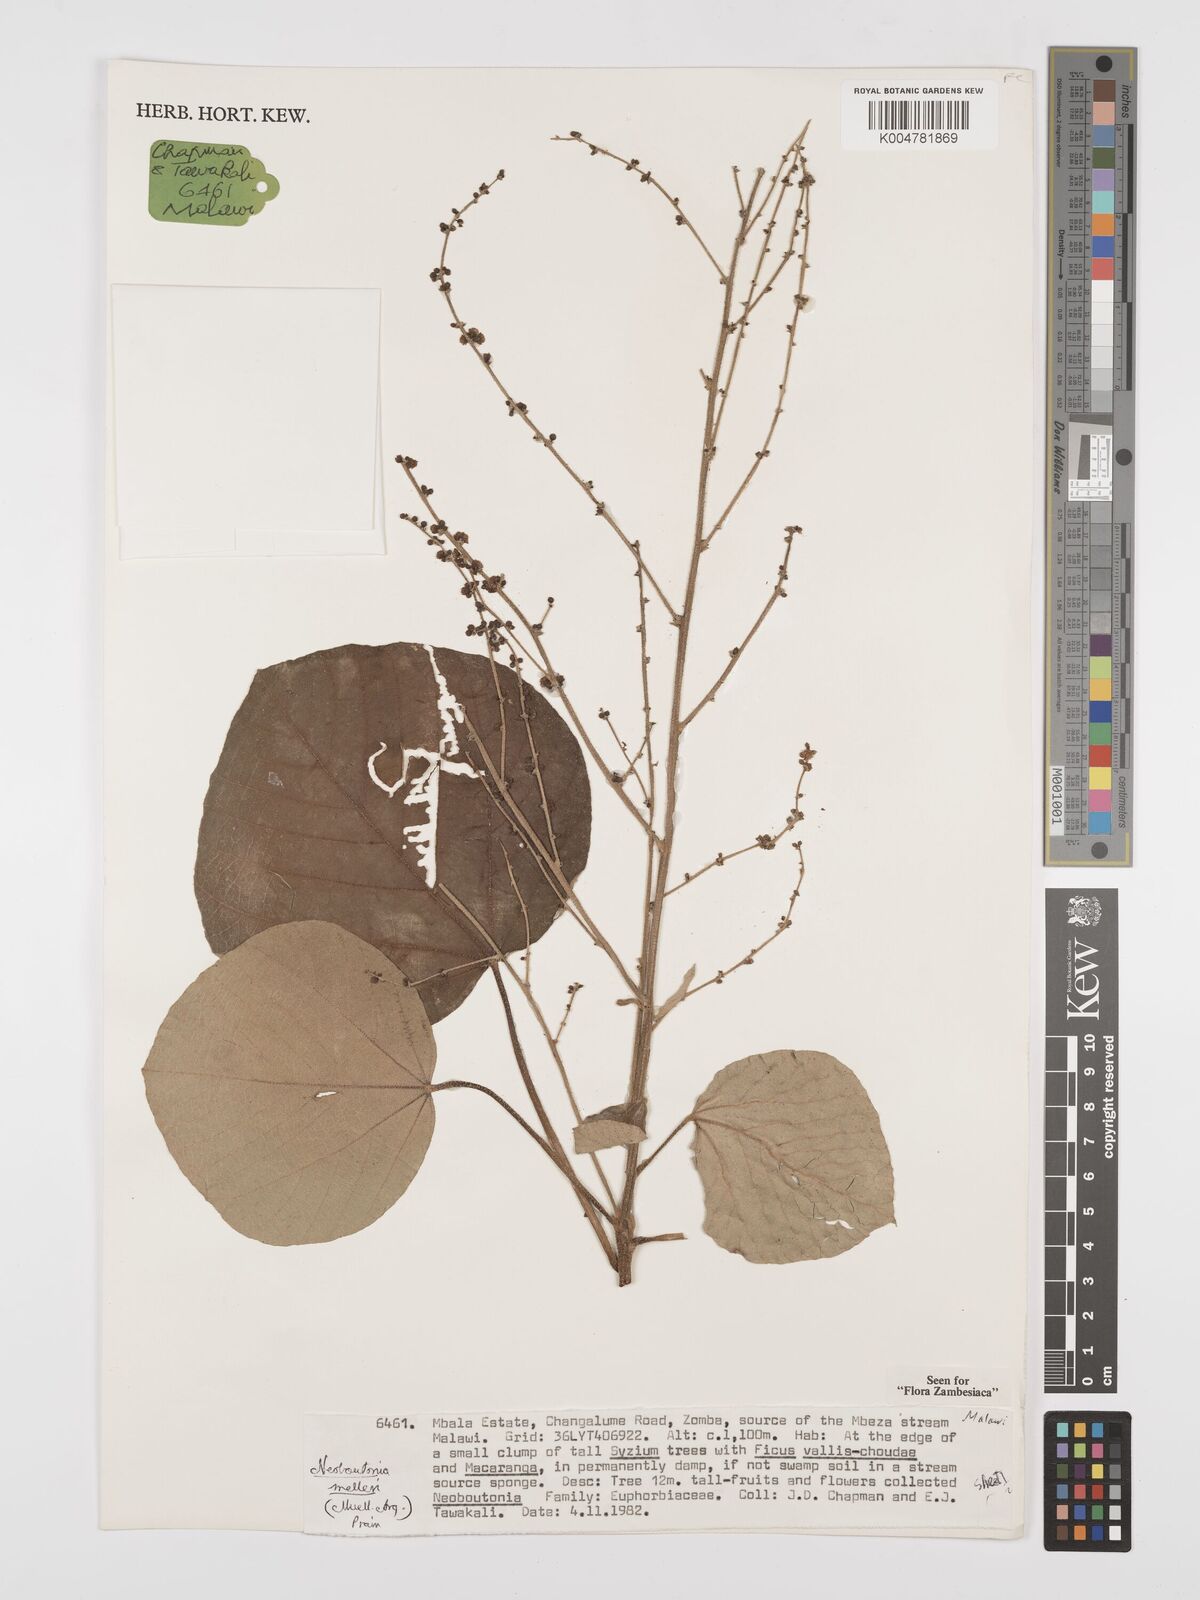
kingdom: Plantae
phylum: Tracheophyta
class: Magnoliopsida
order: Malpighiales
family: Euphorbiaceae
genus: Neoboutonia
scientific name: Neoboutonia melleri
